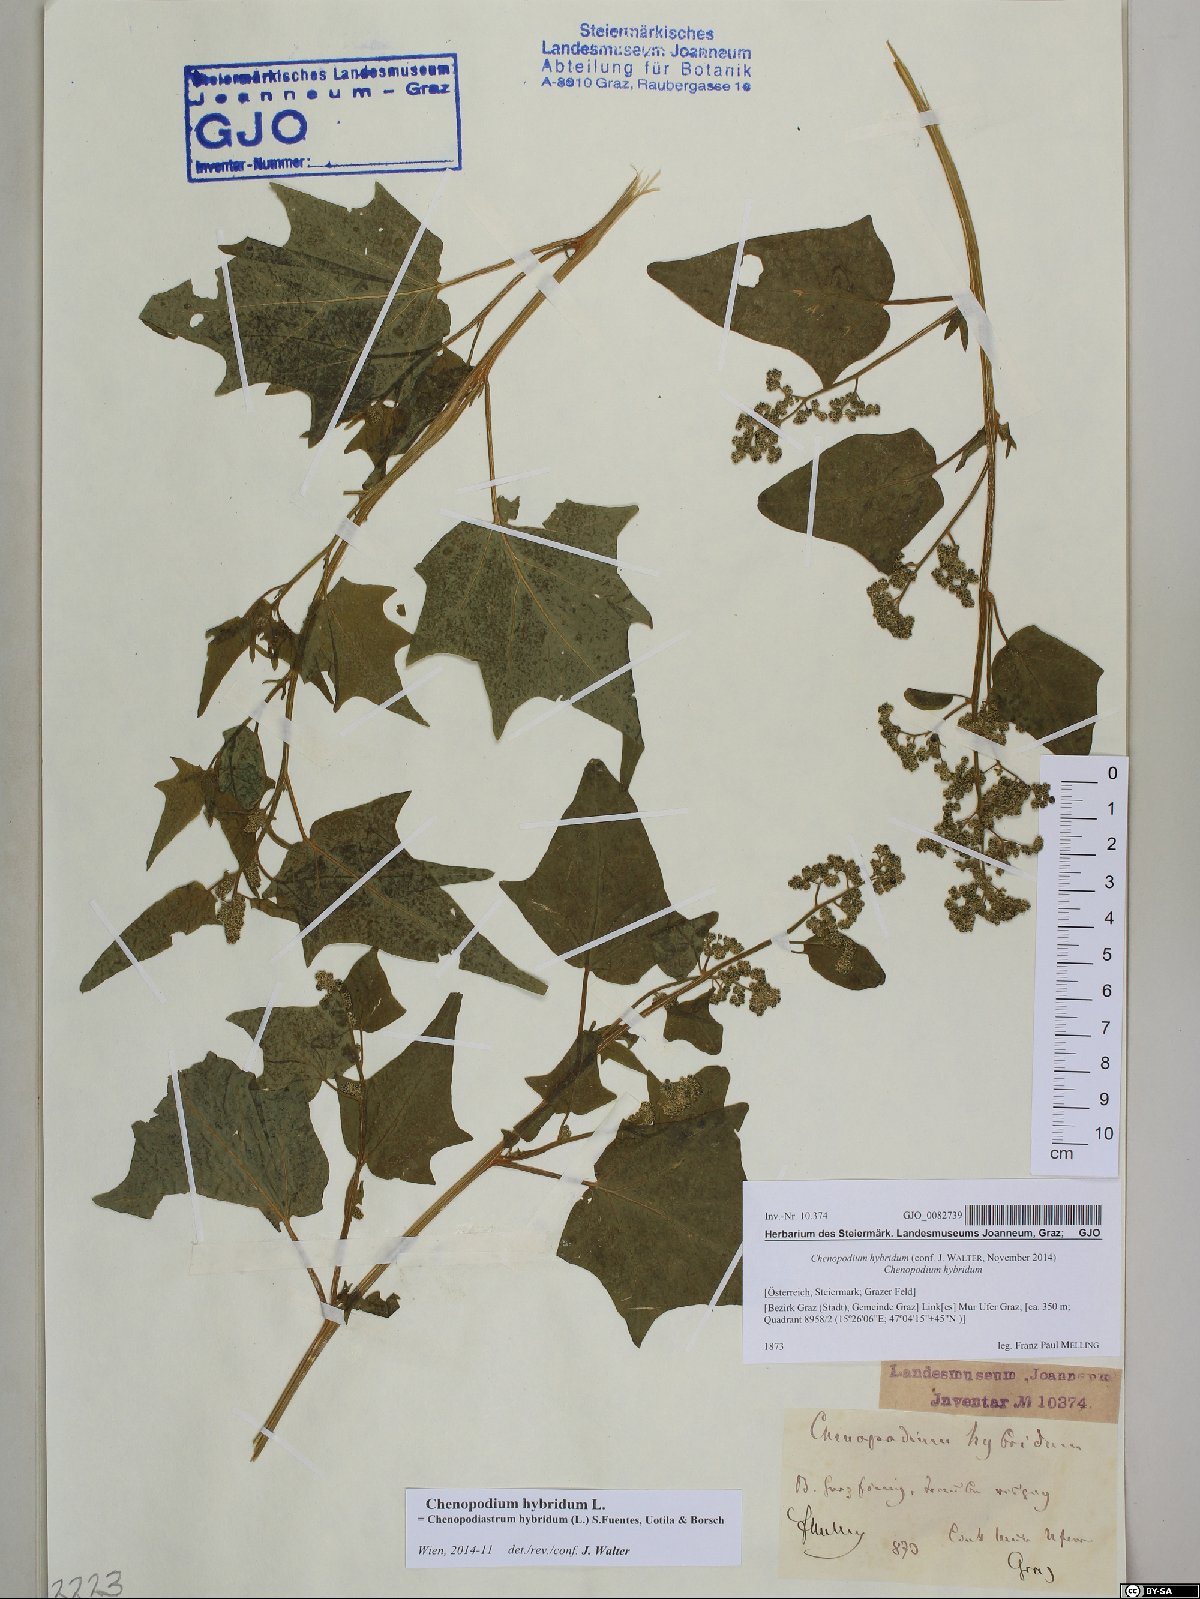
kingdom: Plantae
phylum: Tracheophyta
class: Magnoliopsida
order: Caryophyllales
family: Amaranthaceae
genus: Chenopodiastrum
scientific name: Chenopodiastrum hybridum
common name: Mapleleaf goosefoot
